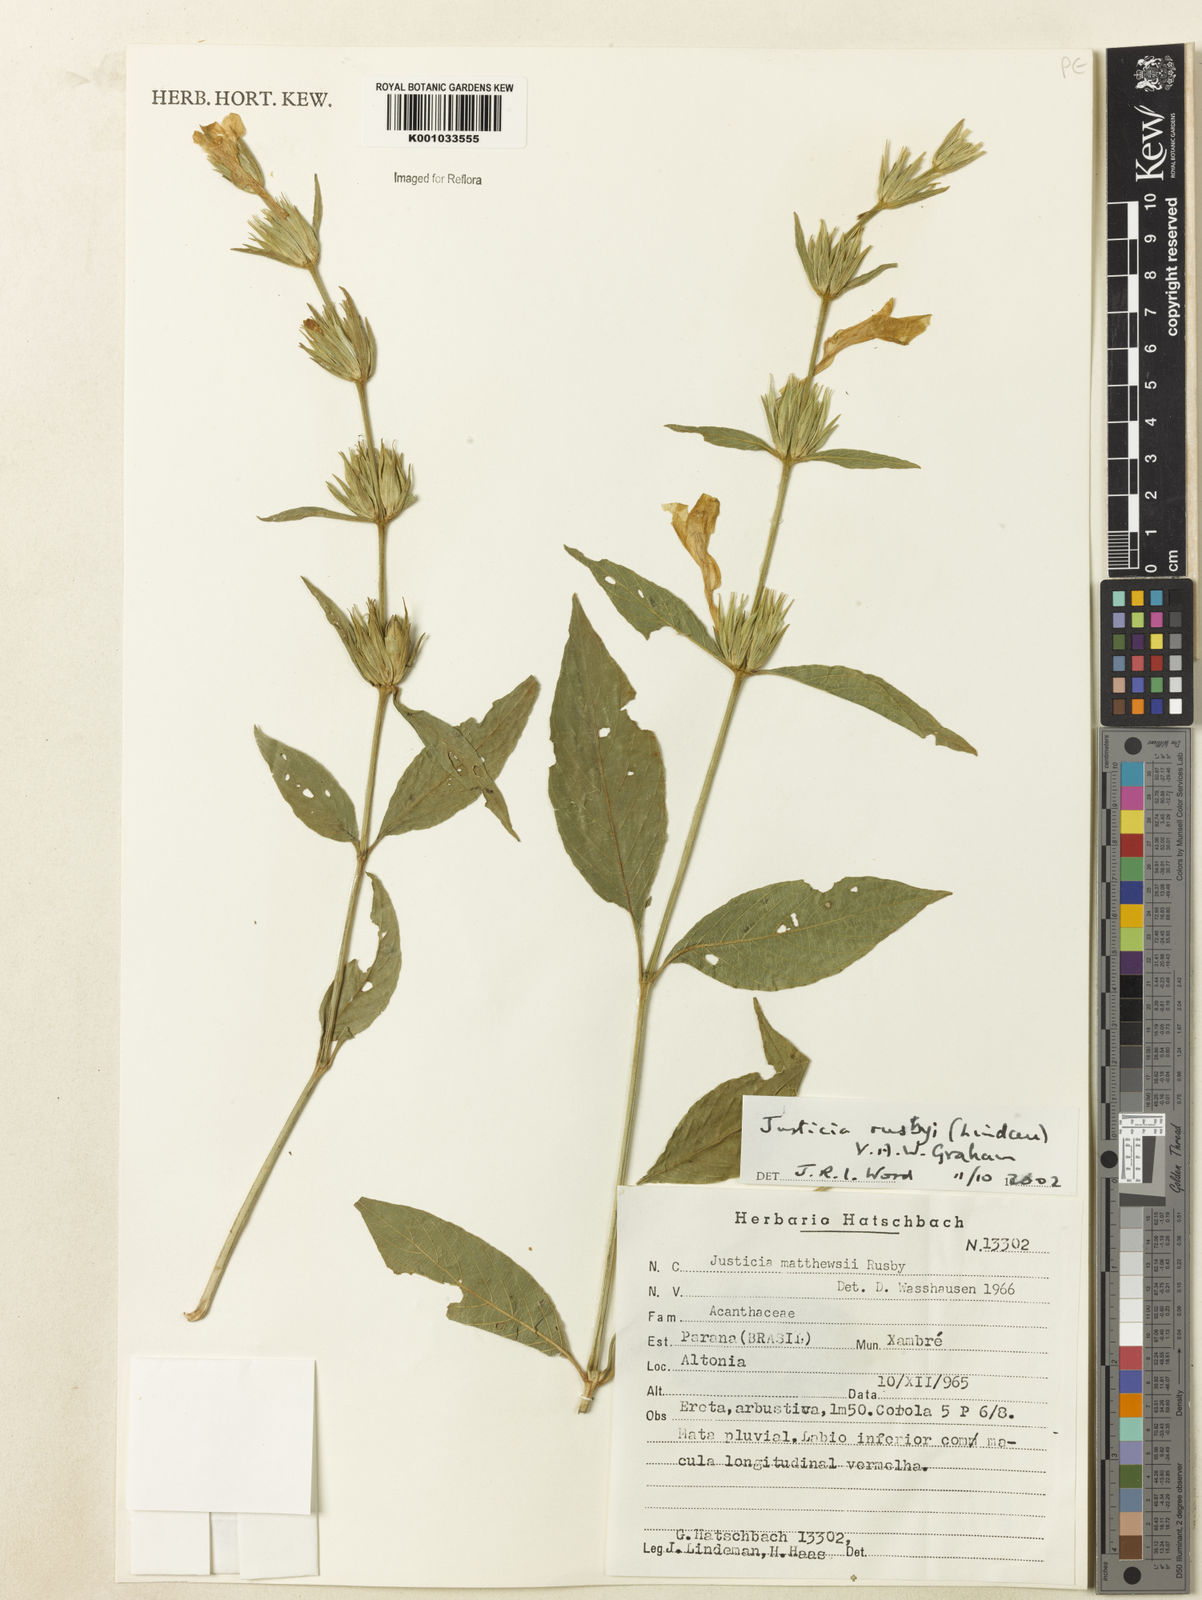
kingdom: Plantae
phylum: Tracheophyta
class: Magnoliopsida
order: Lamiales
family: Acanthaceae
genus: Justicia
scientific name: Justicia rusbyi
